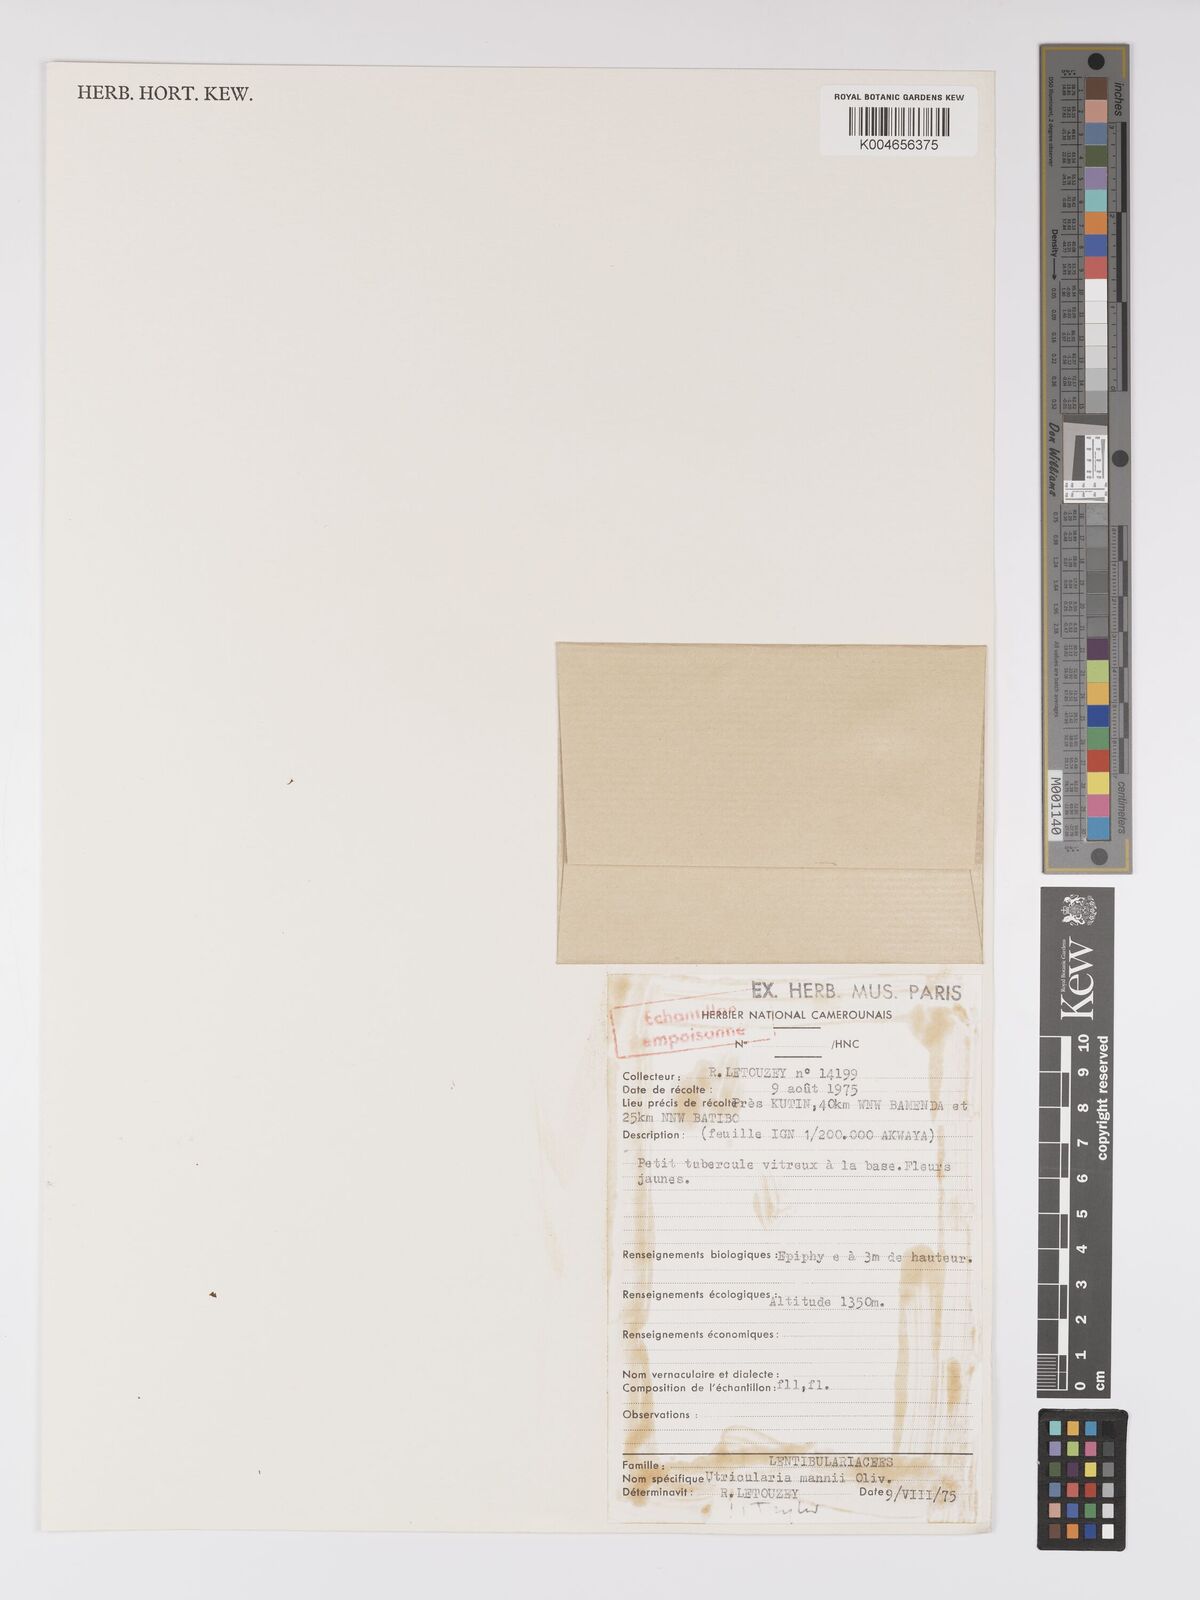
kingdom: Plantae
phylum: Tracheophyta
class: Magnoliopsida
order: Lamiales
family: Lentibulariaceae
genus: Utricularia
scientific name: Utricularia mannii
